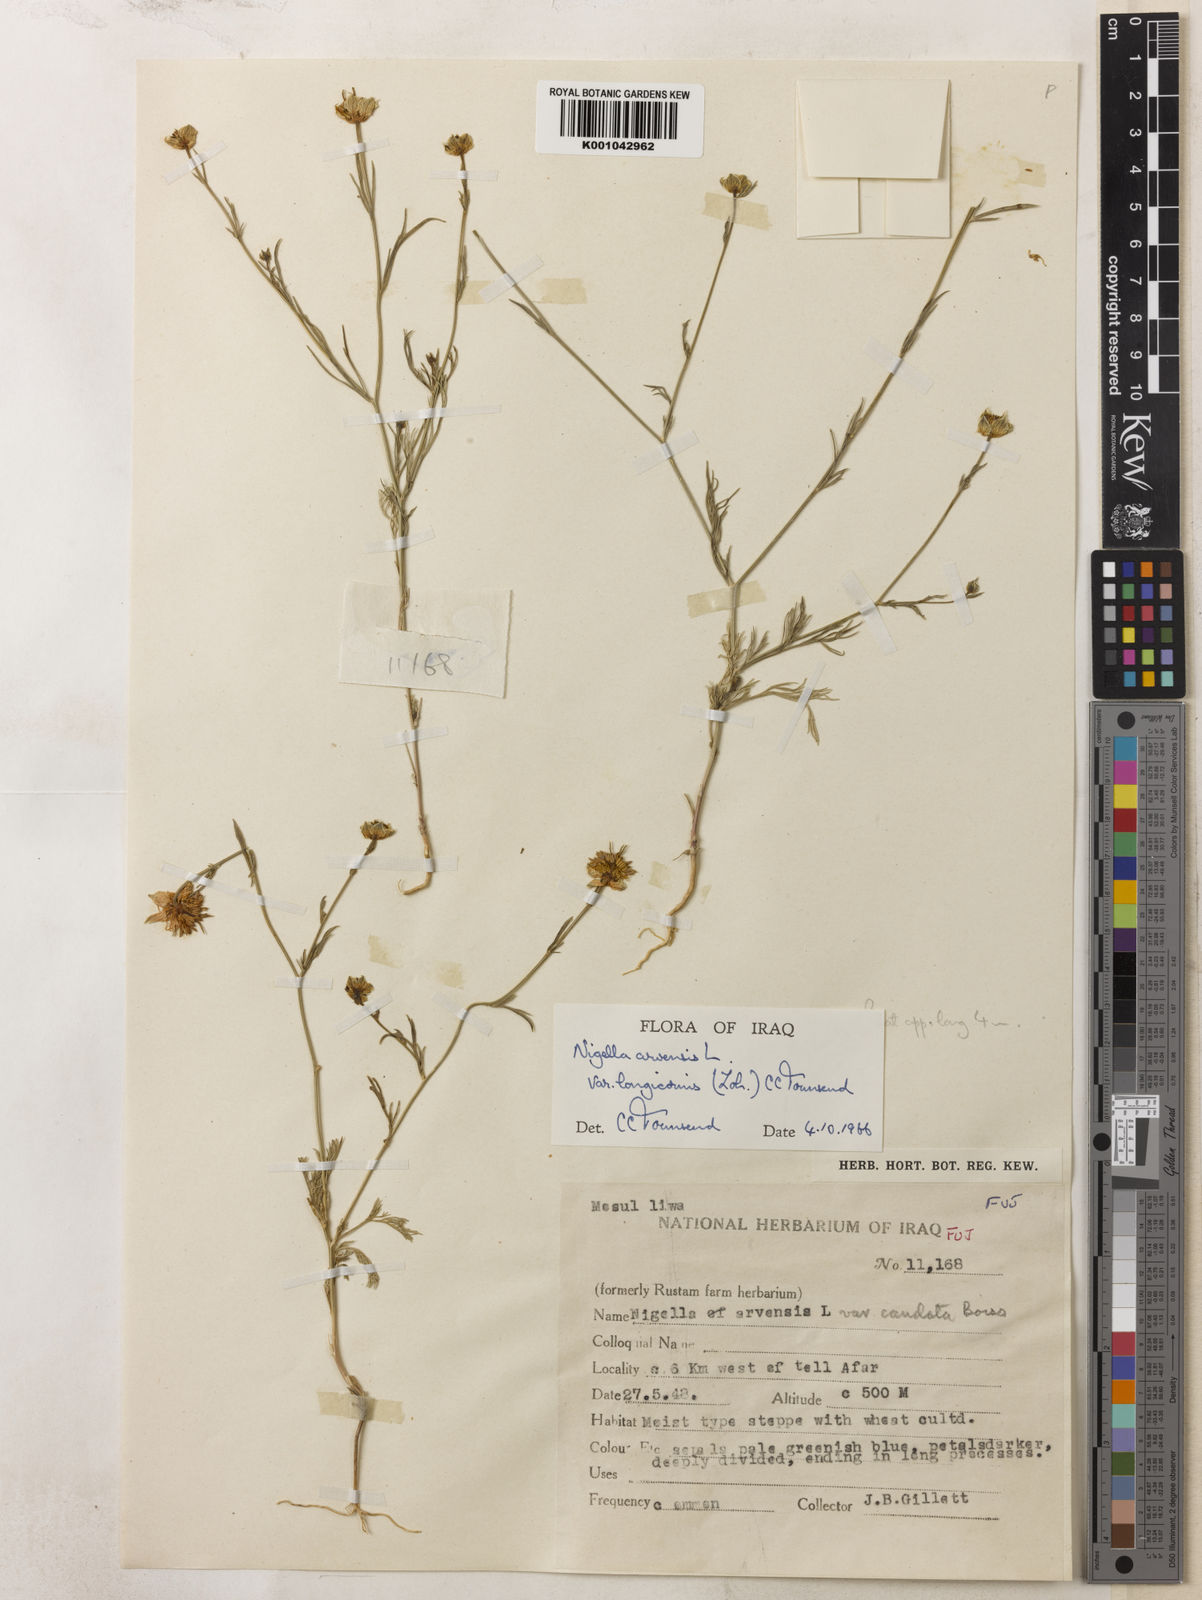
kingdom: Plantae
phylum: Tracheophyta
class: Magnoliopsida
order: Ranunculales
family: Ranunculaceae
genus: Nigella
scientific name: Nigella arvensis
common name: Wild fennel-flower
